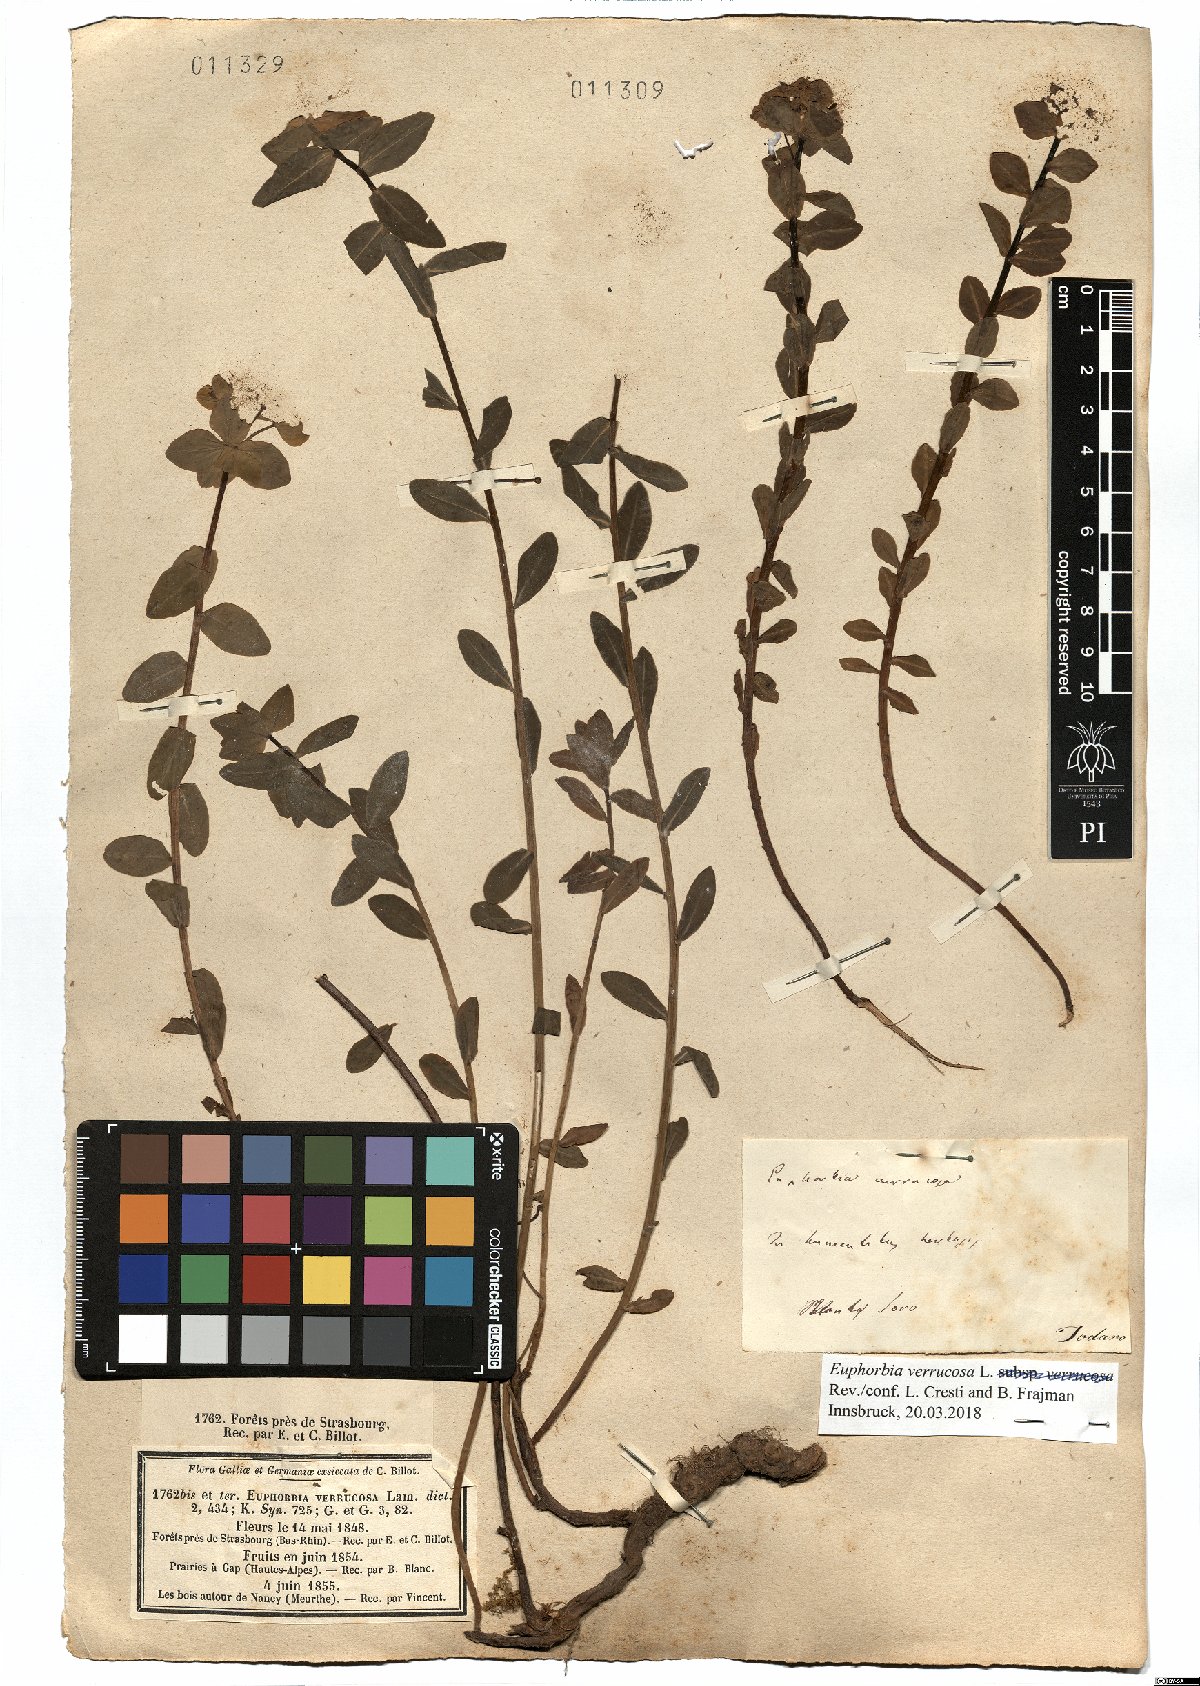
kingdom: Plantae
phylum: Tracheophyta
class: Magnoliopsida
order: Malpighiales
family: Euphorbiaceae
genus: Euphorbia
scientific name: Euphorbia verrucosa
